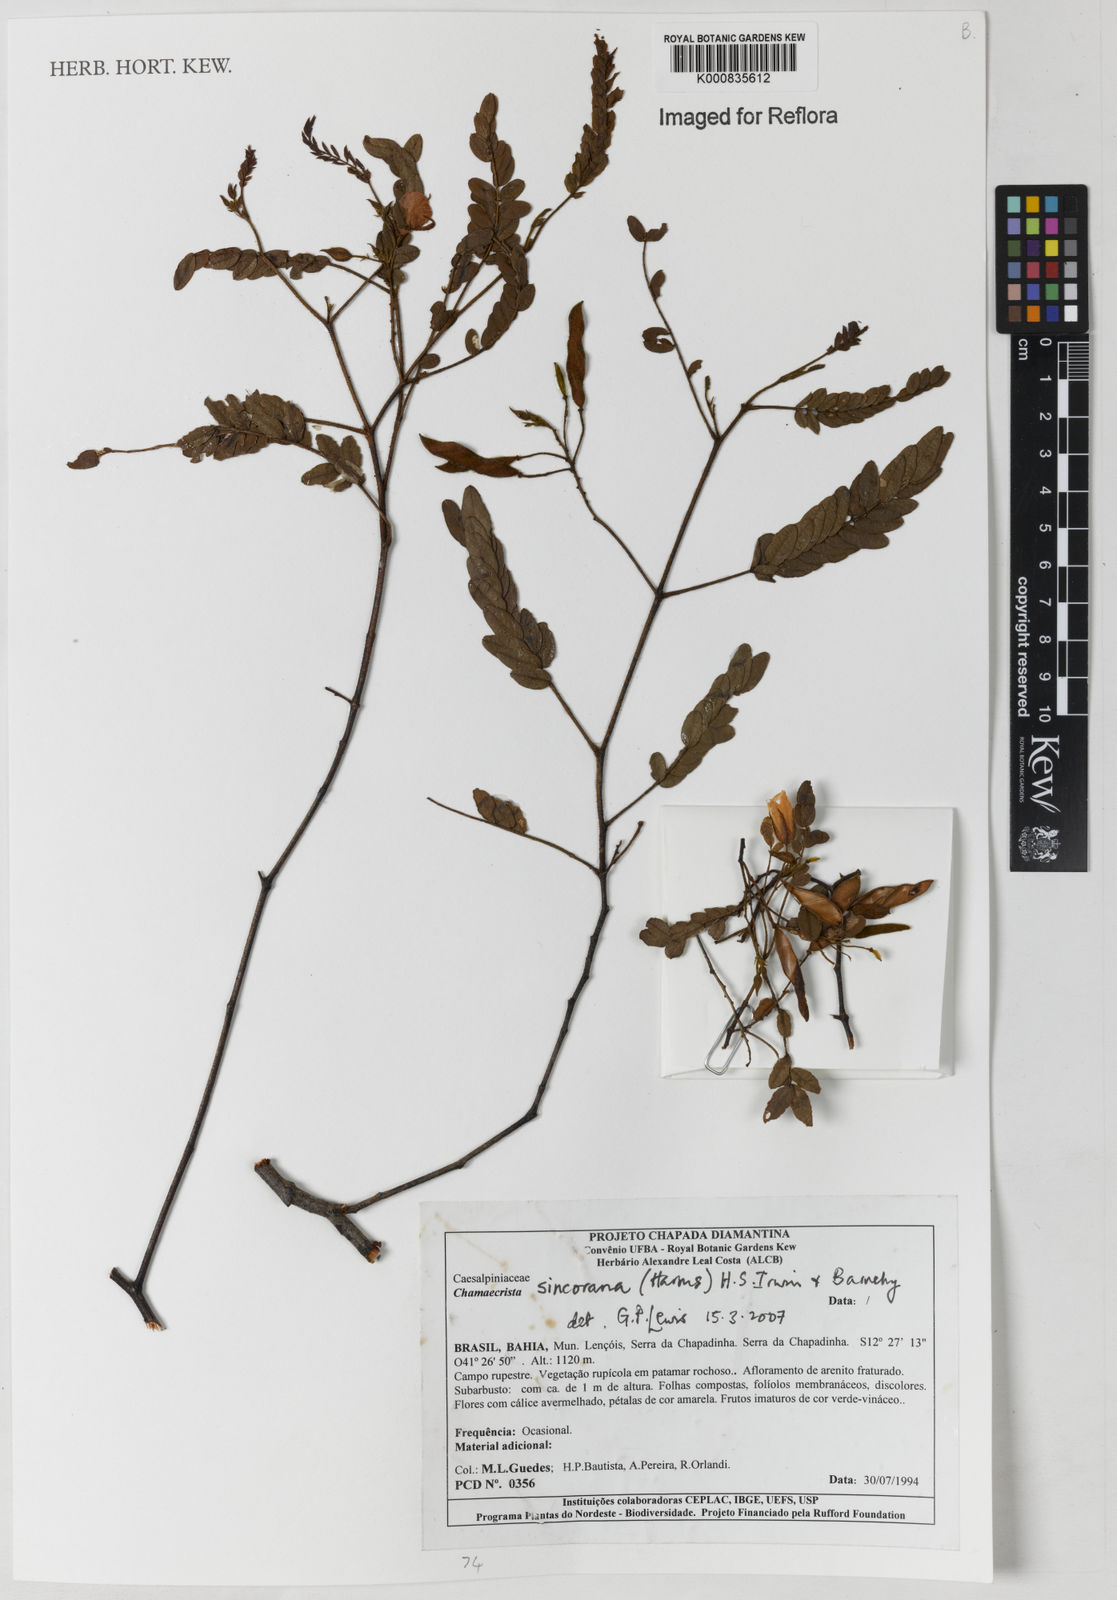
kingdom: Plantae
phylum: Tracheophyta
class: Magnoliopsida
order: Fabales
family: Fabaceae
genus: Chamaecrista
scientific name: Chamaecrista sincorana
